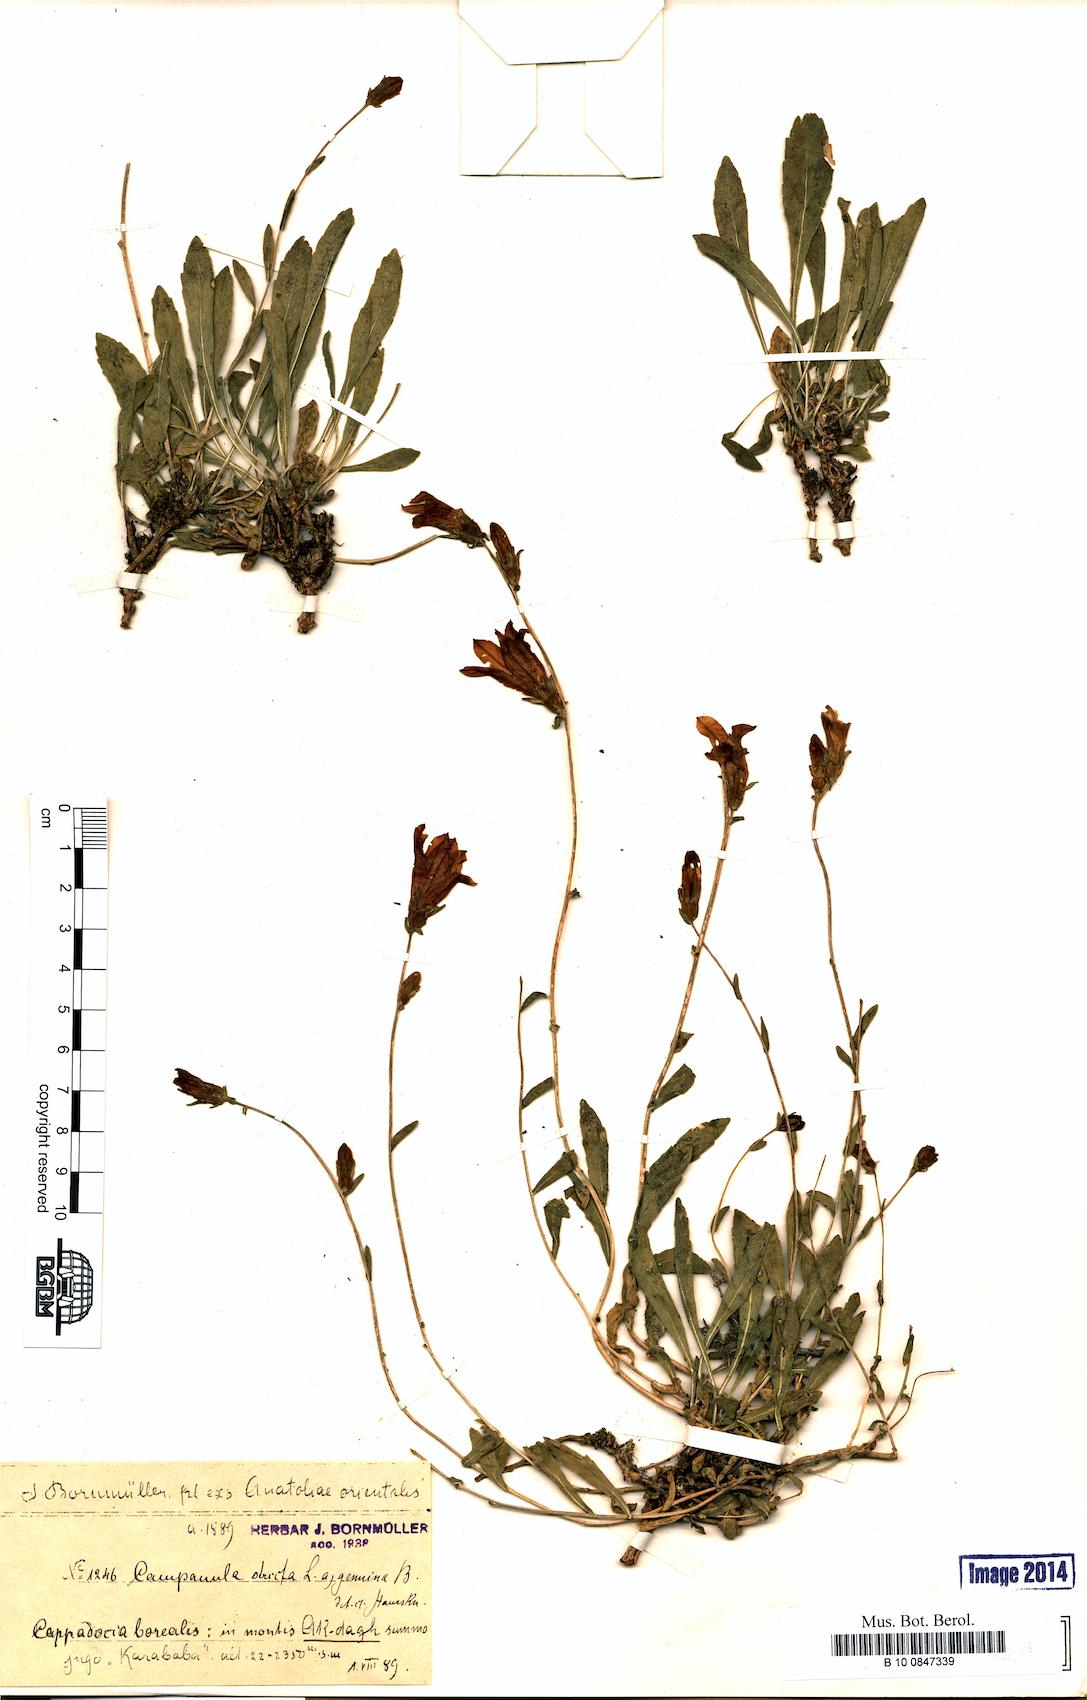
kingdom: Plantae
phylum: Tracheophyta
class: Magnoliopsida
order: Asterales
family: Campanulaceae
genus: Campanula
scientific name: Campanula stricta
